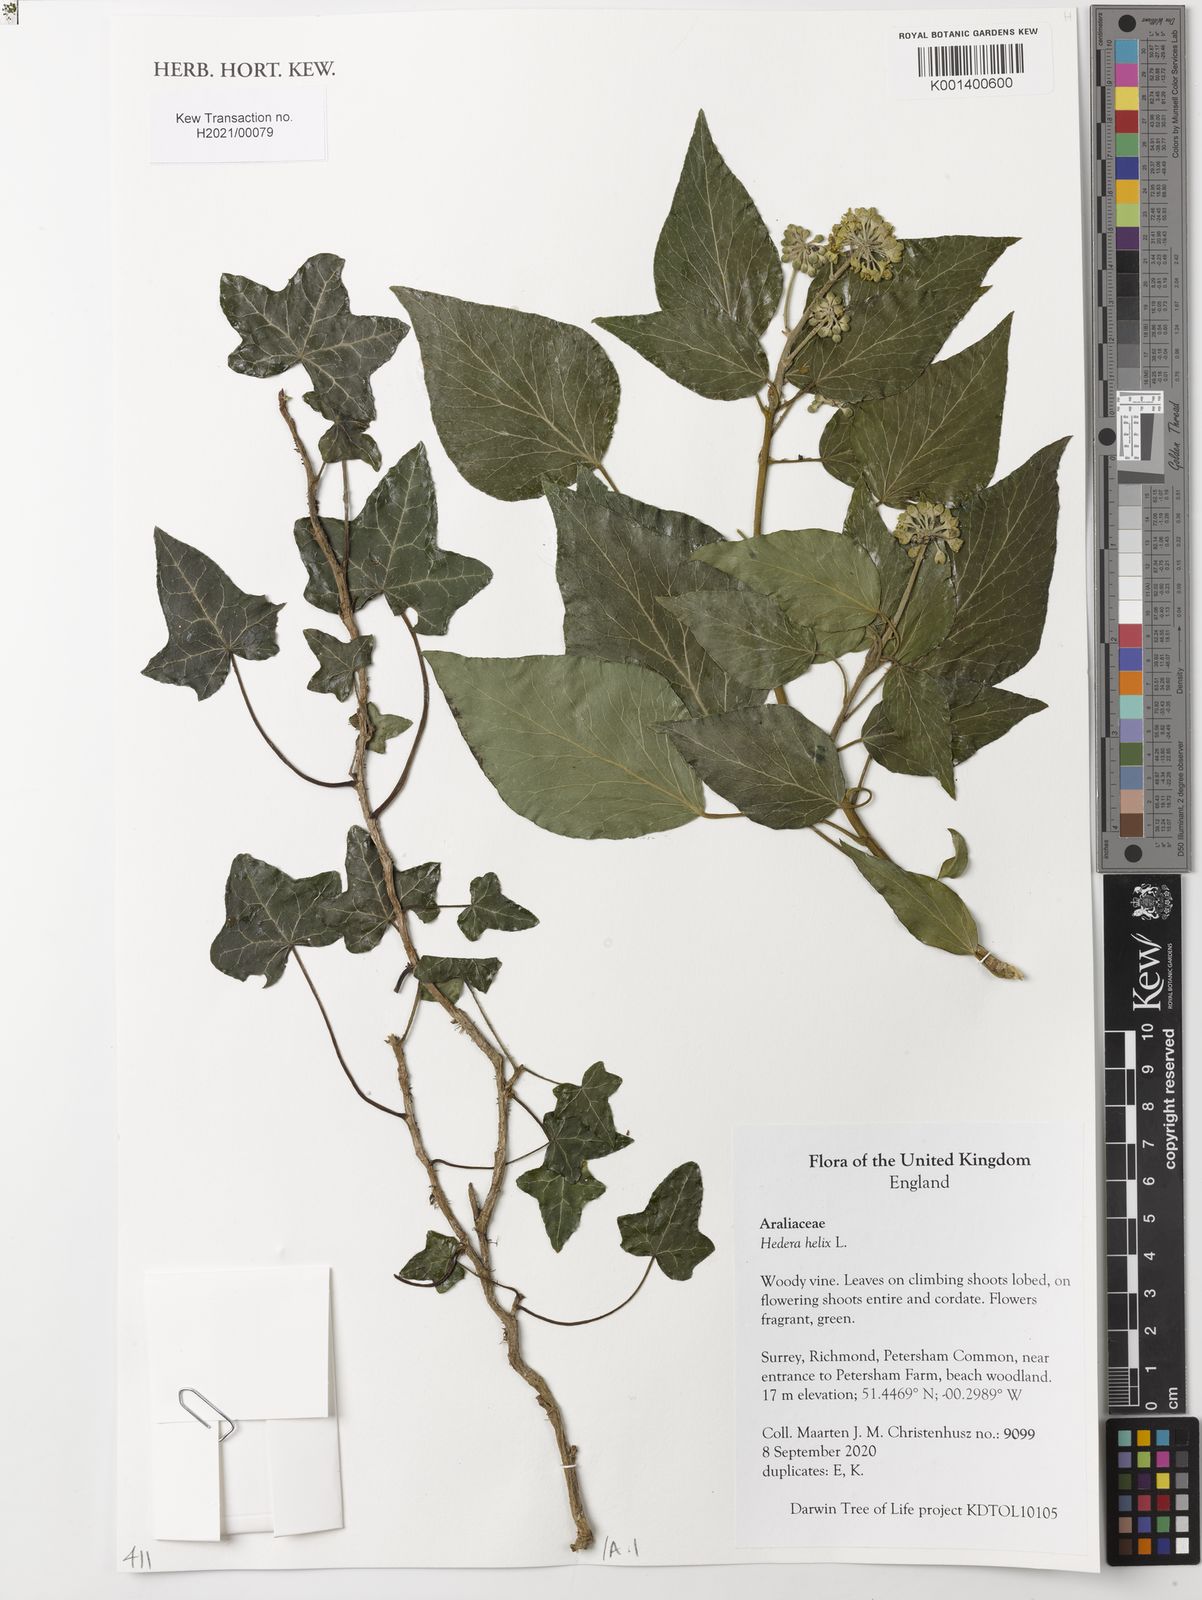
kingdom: Plantae
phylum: Tracheophyta
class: Magnoliopsida
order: Apiales
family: Araliaceae
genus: Hedera
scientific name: Hedera helix
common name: Ivy
